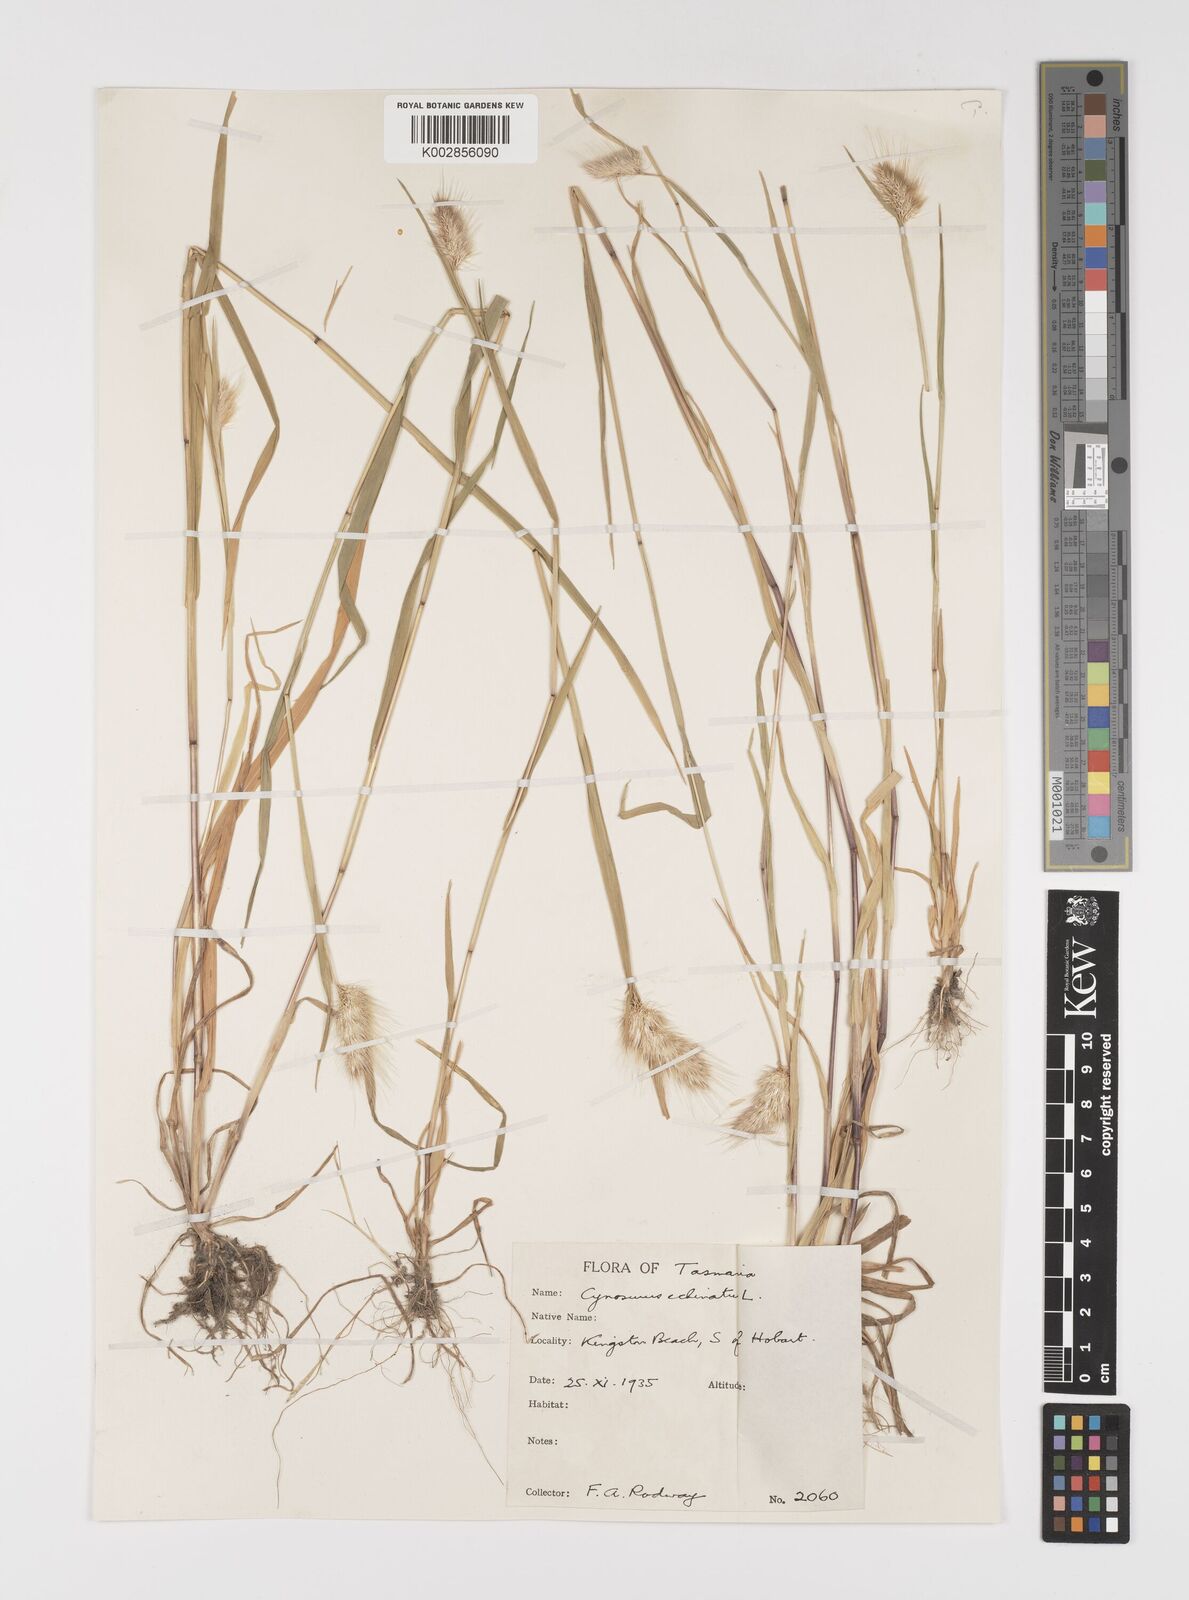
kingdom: Plantae
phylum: Tracheophyta
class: Liliopsida
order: Poales
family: Poaceae
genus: Cynosurus
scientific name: Cynosurus echinatus
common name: Rough dog's-tail
